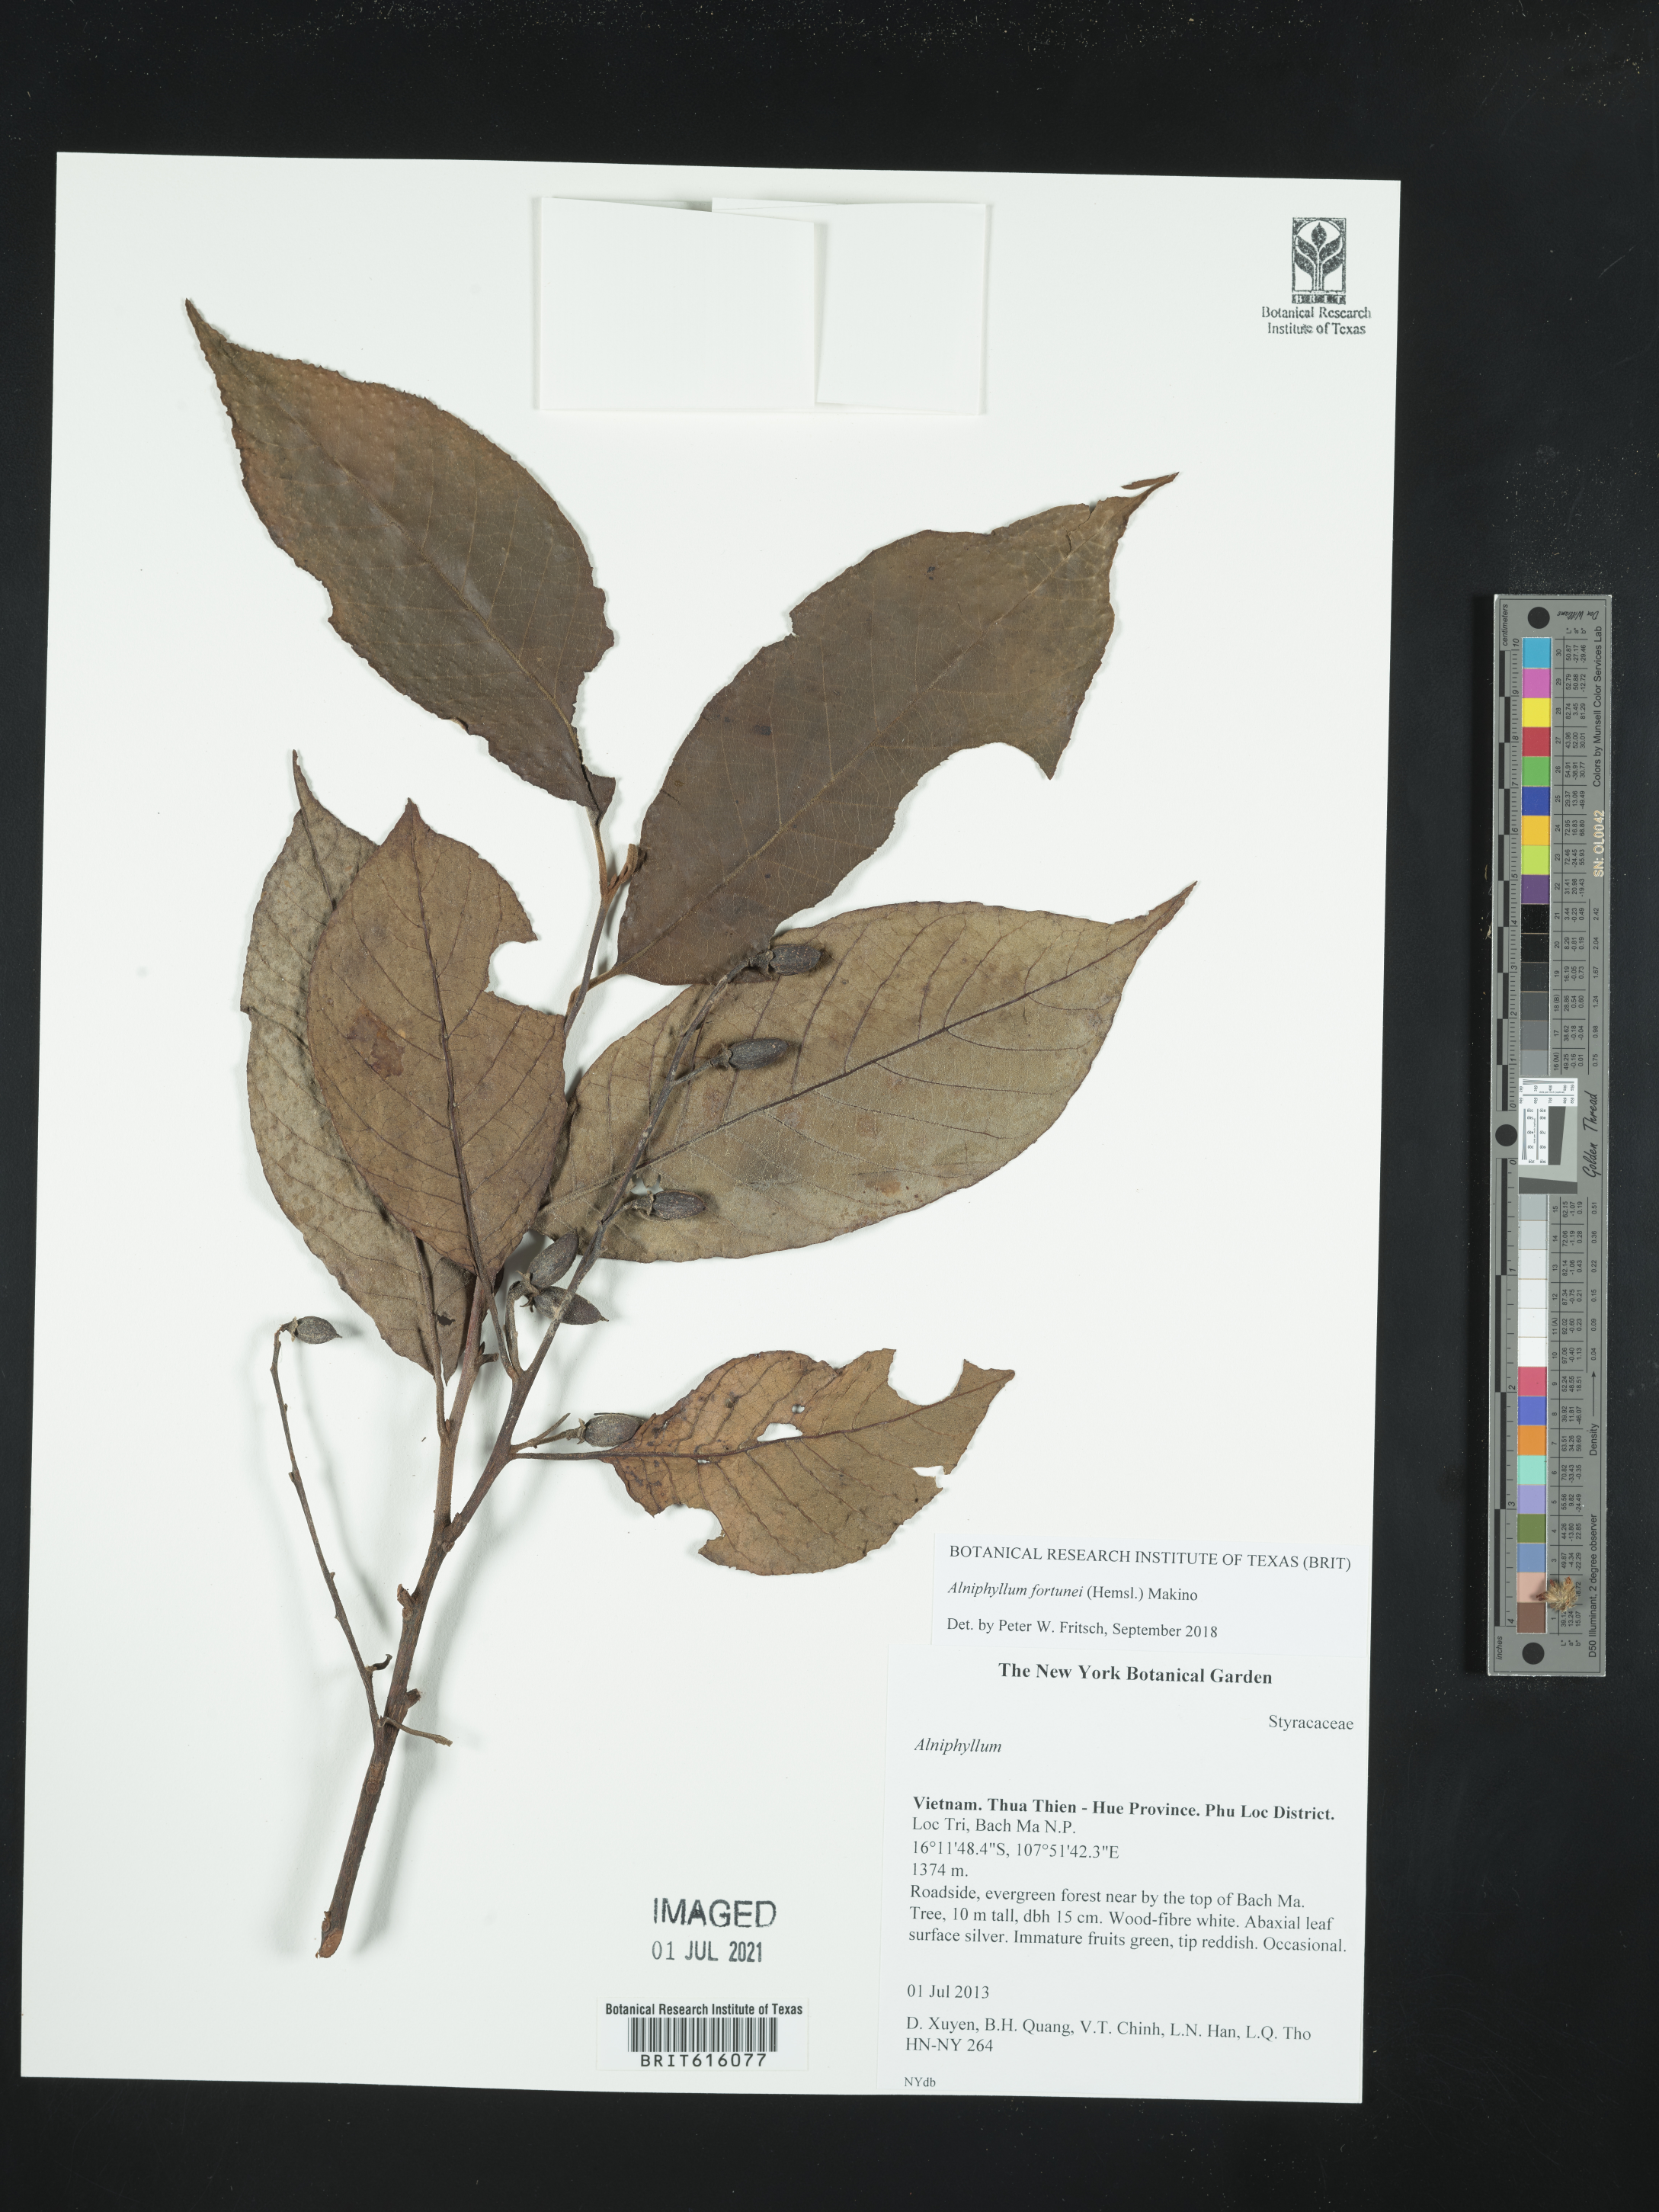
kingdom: Plantae
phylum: Tracheophyta
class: Magnoliopsida
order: Ericales
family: Styracaceae
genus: Alniphyllum
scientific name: Alniphyllum fortunei
